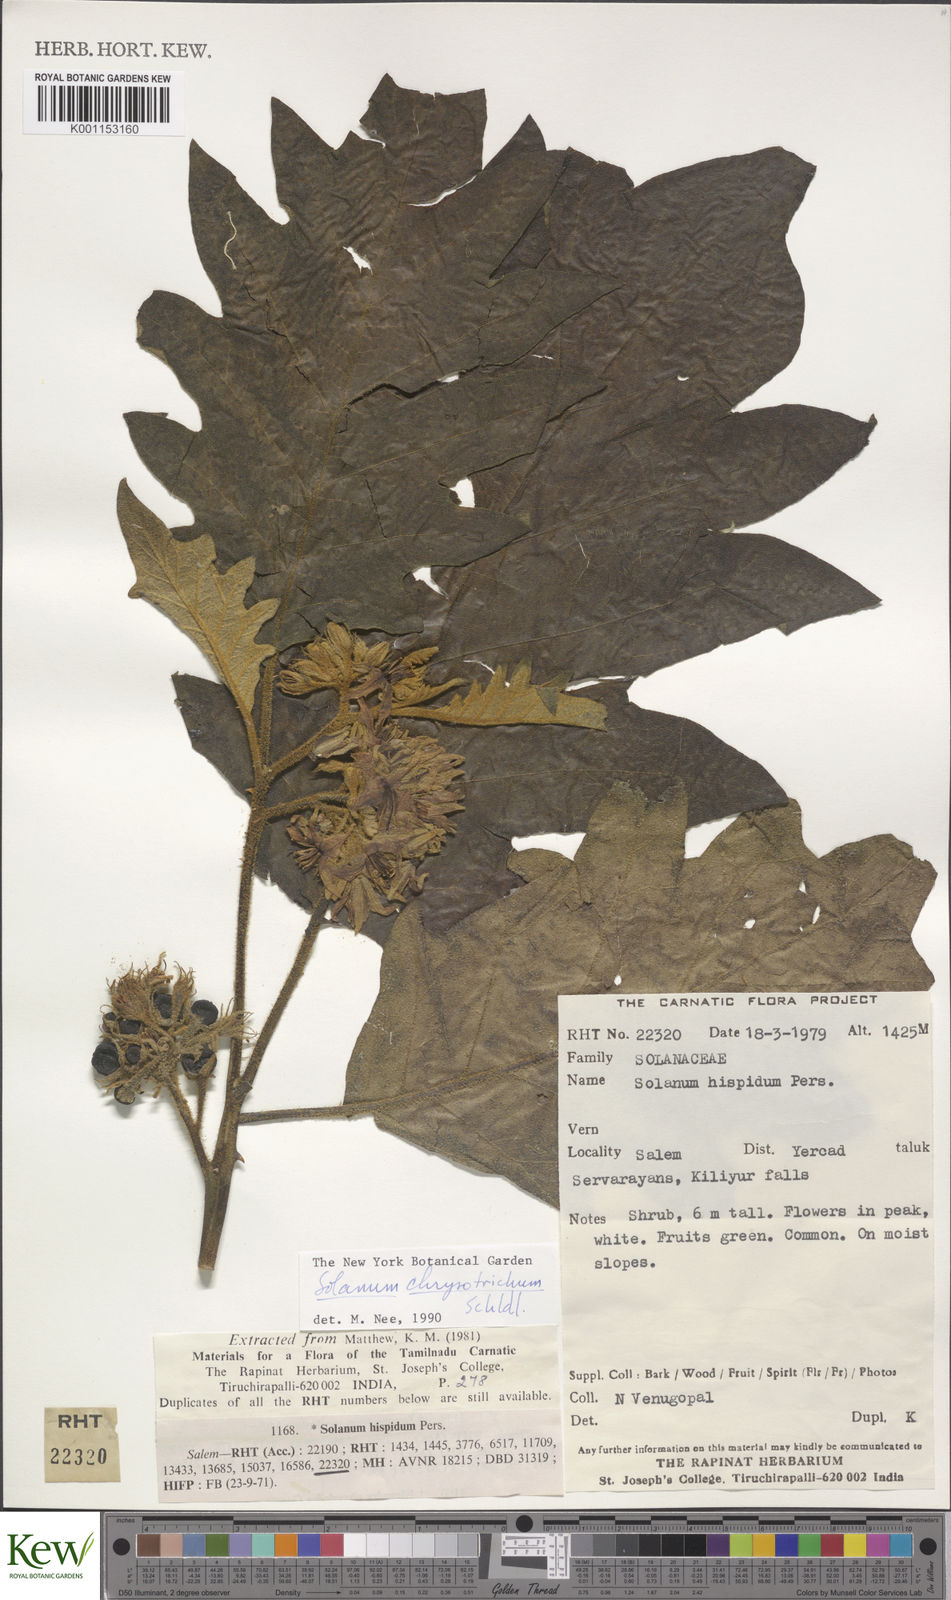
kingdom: Plantae
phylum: Tracheophyta
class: Magnoliopsida
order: Solanales
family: Solanaceae
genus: Solanum
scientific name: Solanum asperolanatum
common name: Devil's-fig
